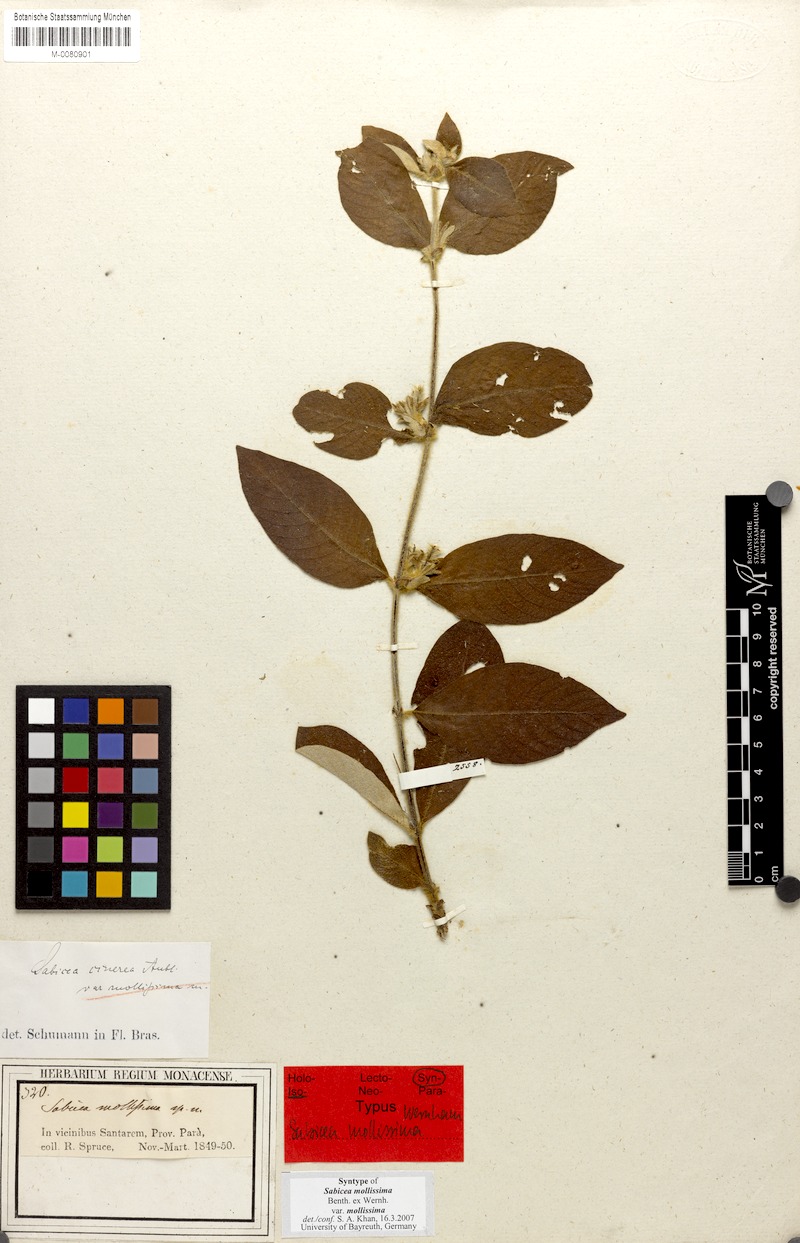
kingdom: Plantae
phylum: Tracheophyta
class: Magnoliopsida
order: Gentianales
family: Rubiaceae
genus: Sabicea
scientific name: Sabicea mollissima
